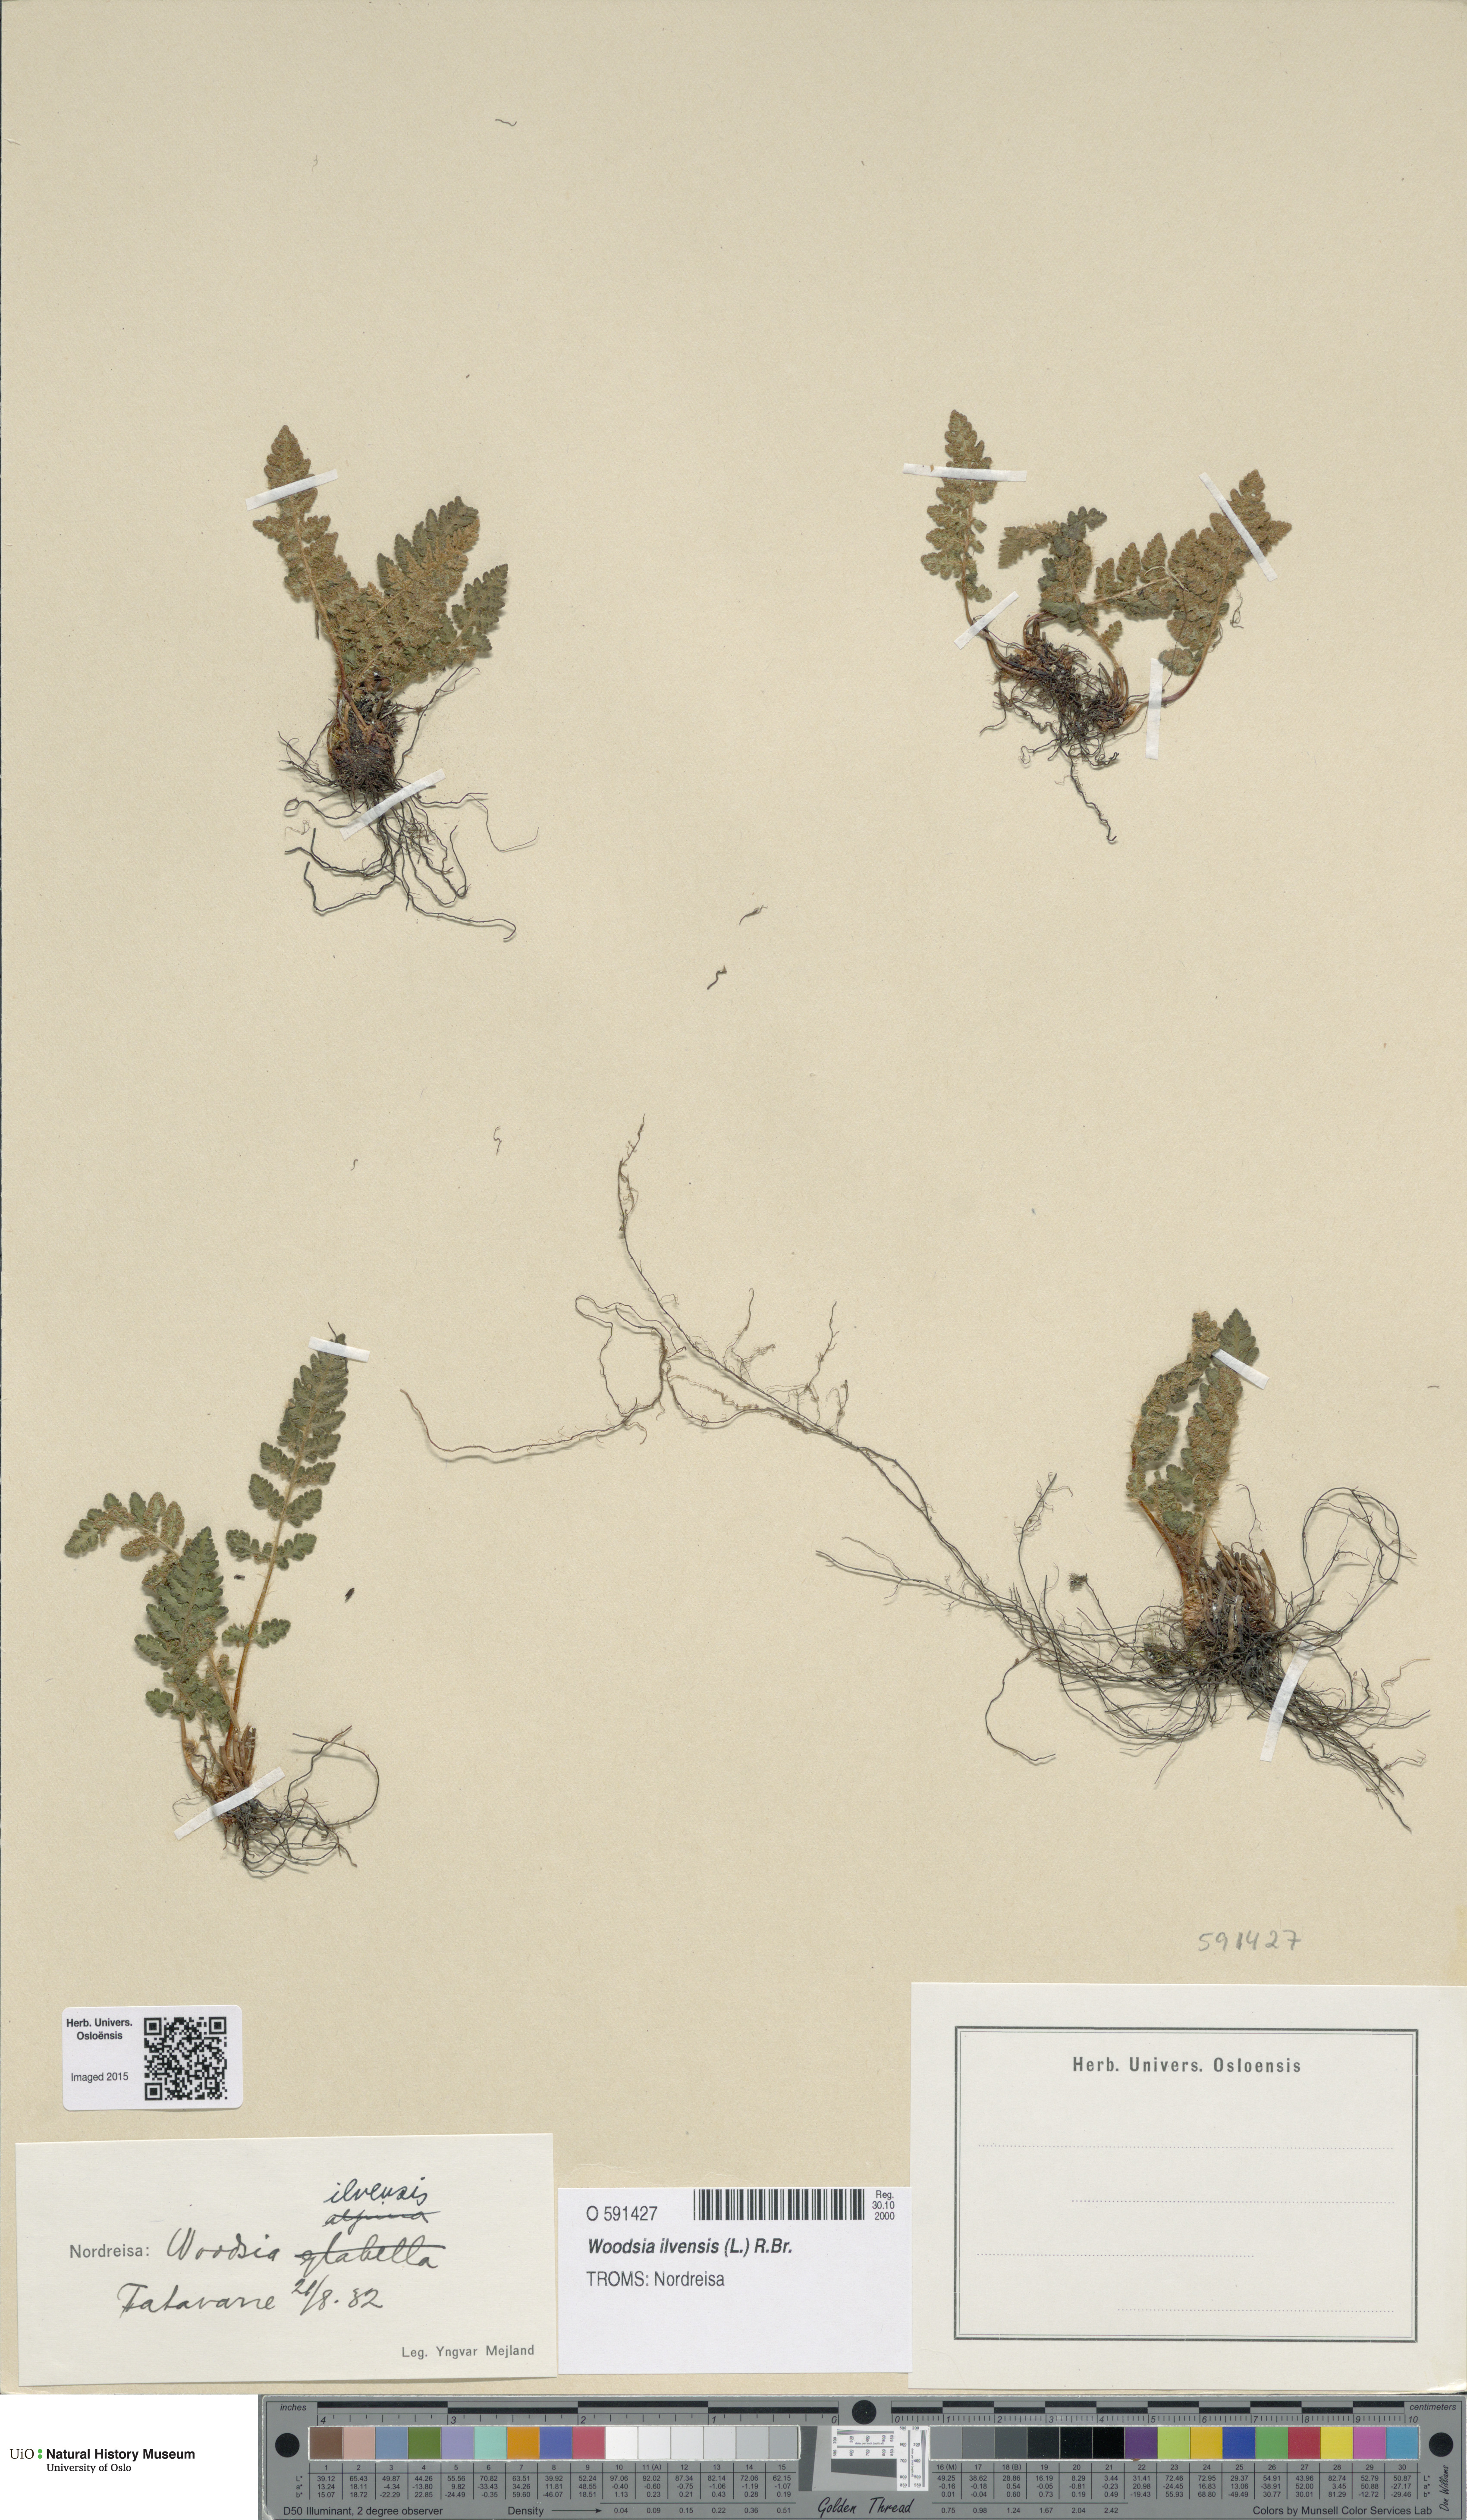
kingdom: Plantae
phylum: Tracheophyta
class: Polypodiopsida
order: Polypodiales
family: Woodsiaceae
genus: Woodsia
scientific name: Woodsia ilvensis
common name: Fragrant woodsia
